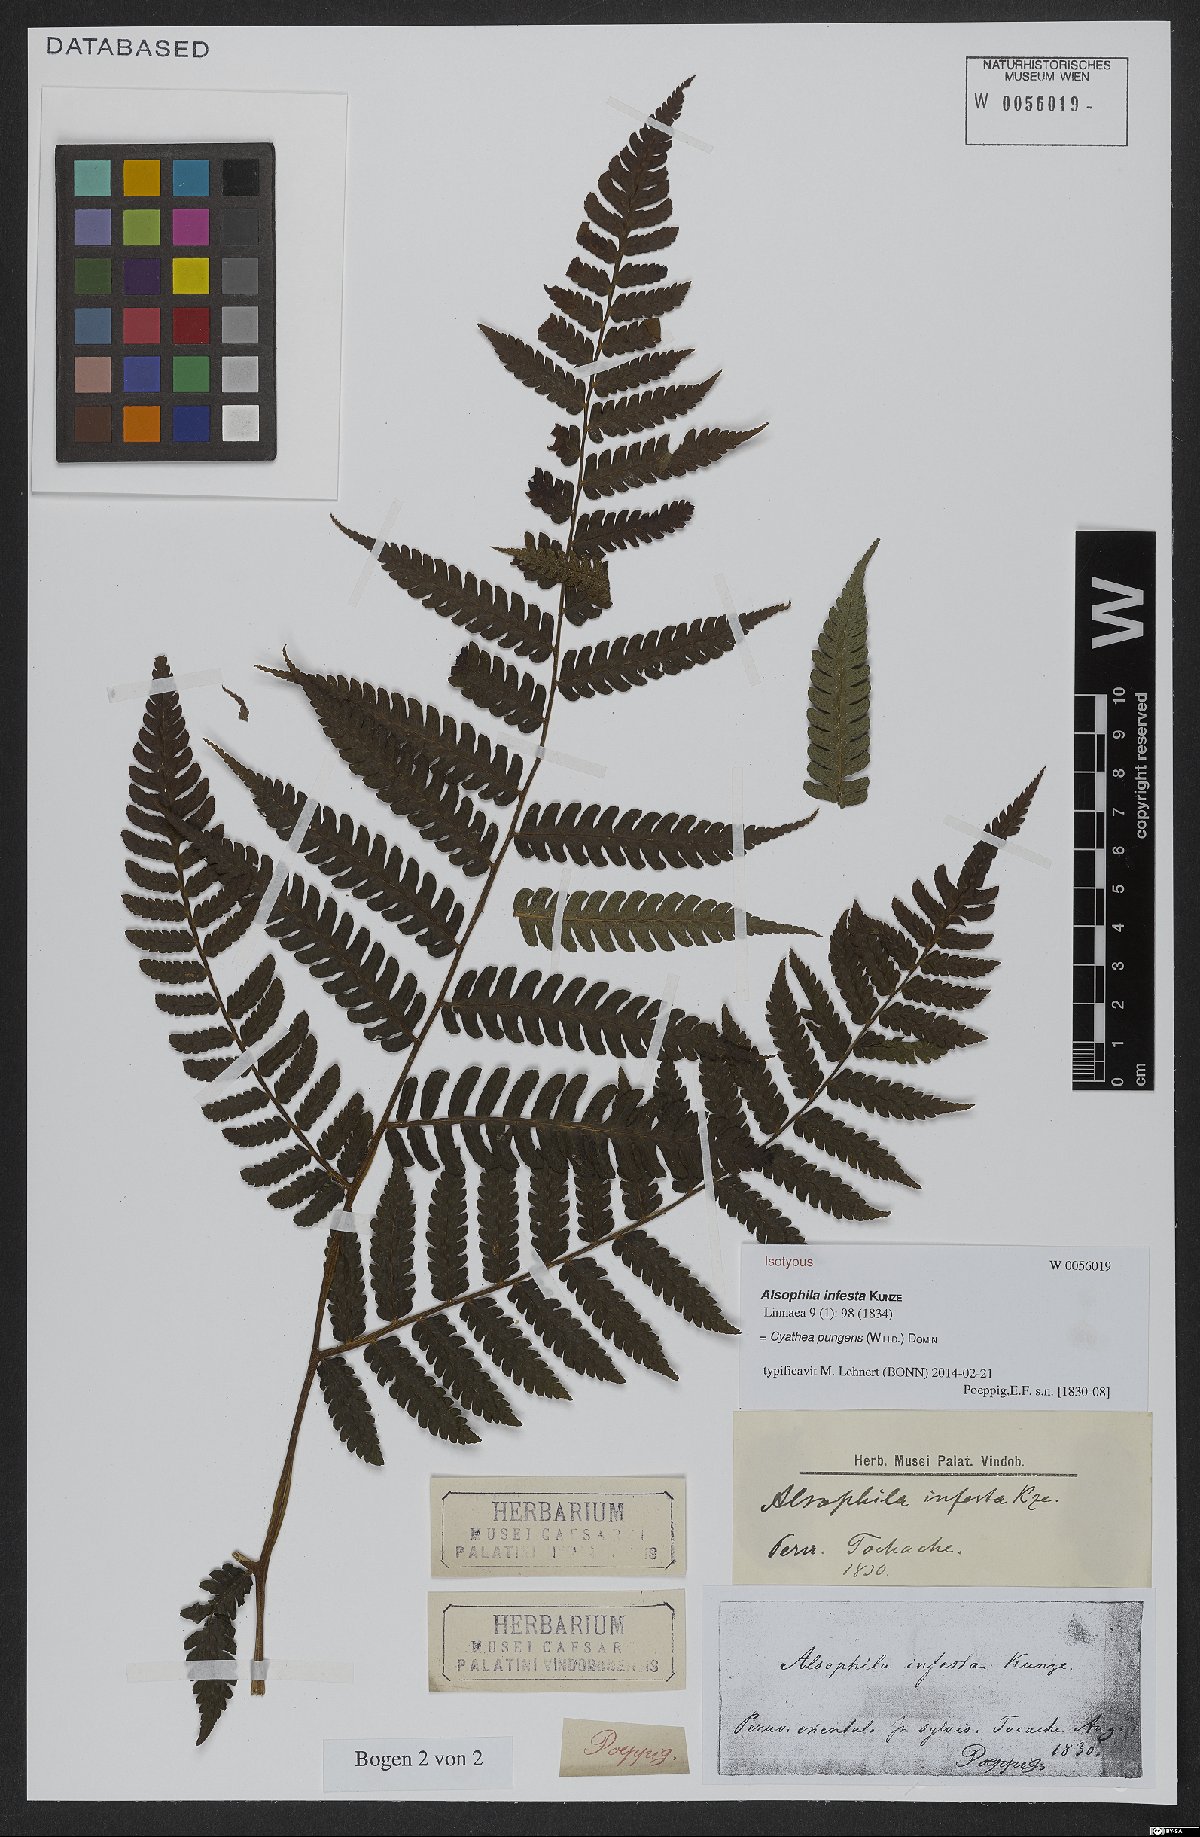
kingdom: Plantae
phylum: Tracheophyta
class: Polypodiopsida
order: Cyatheales
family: Cyatheaceae
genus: Cyathea
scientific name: Cyathea pungens
